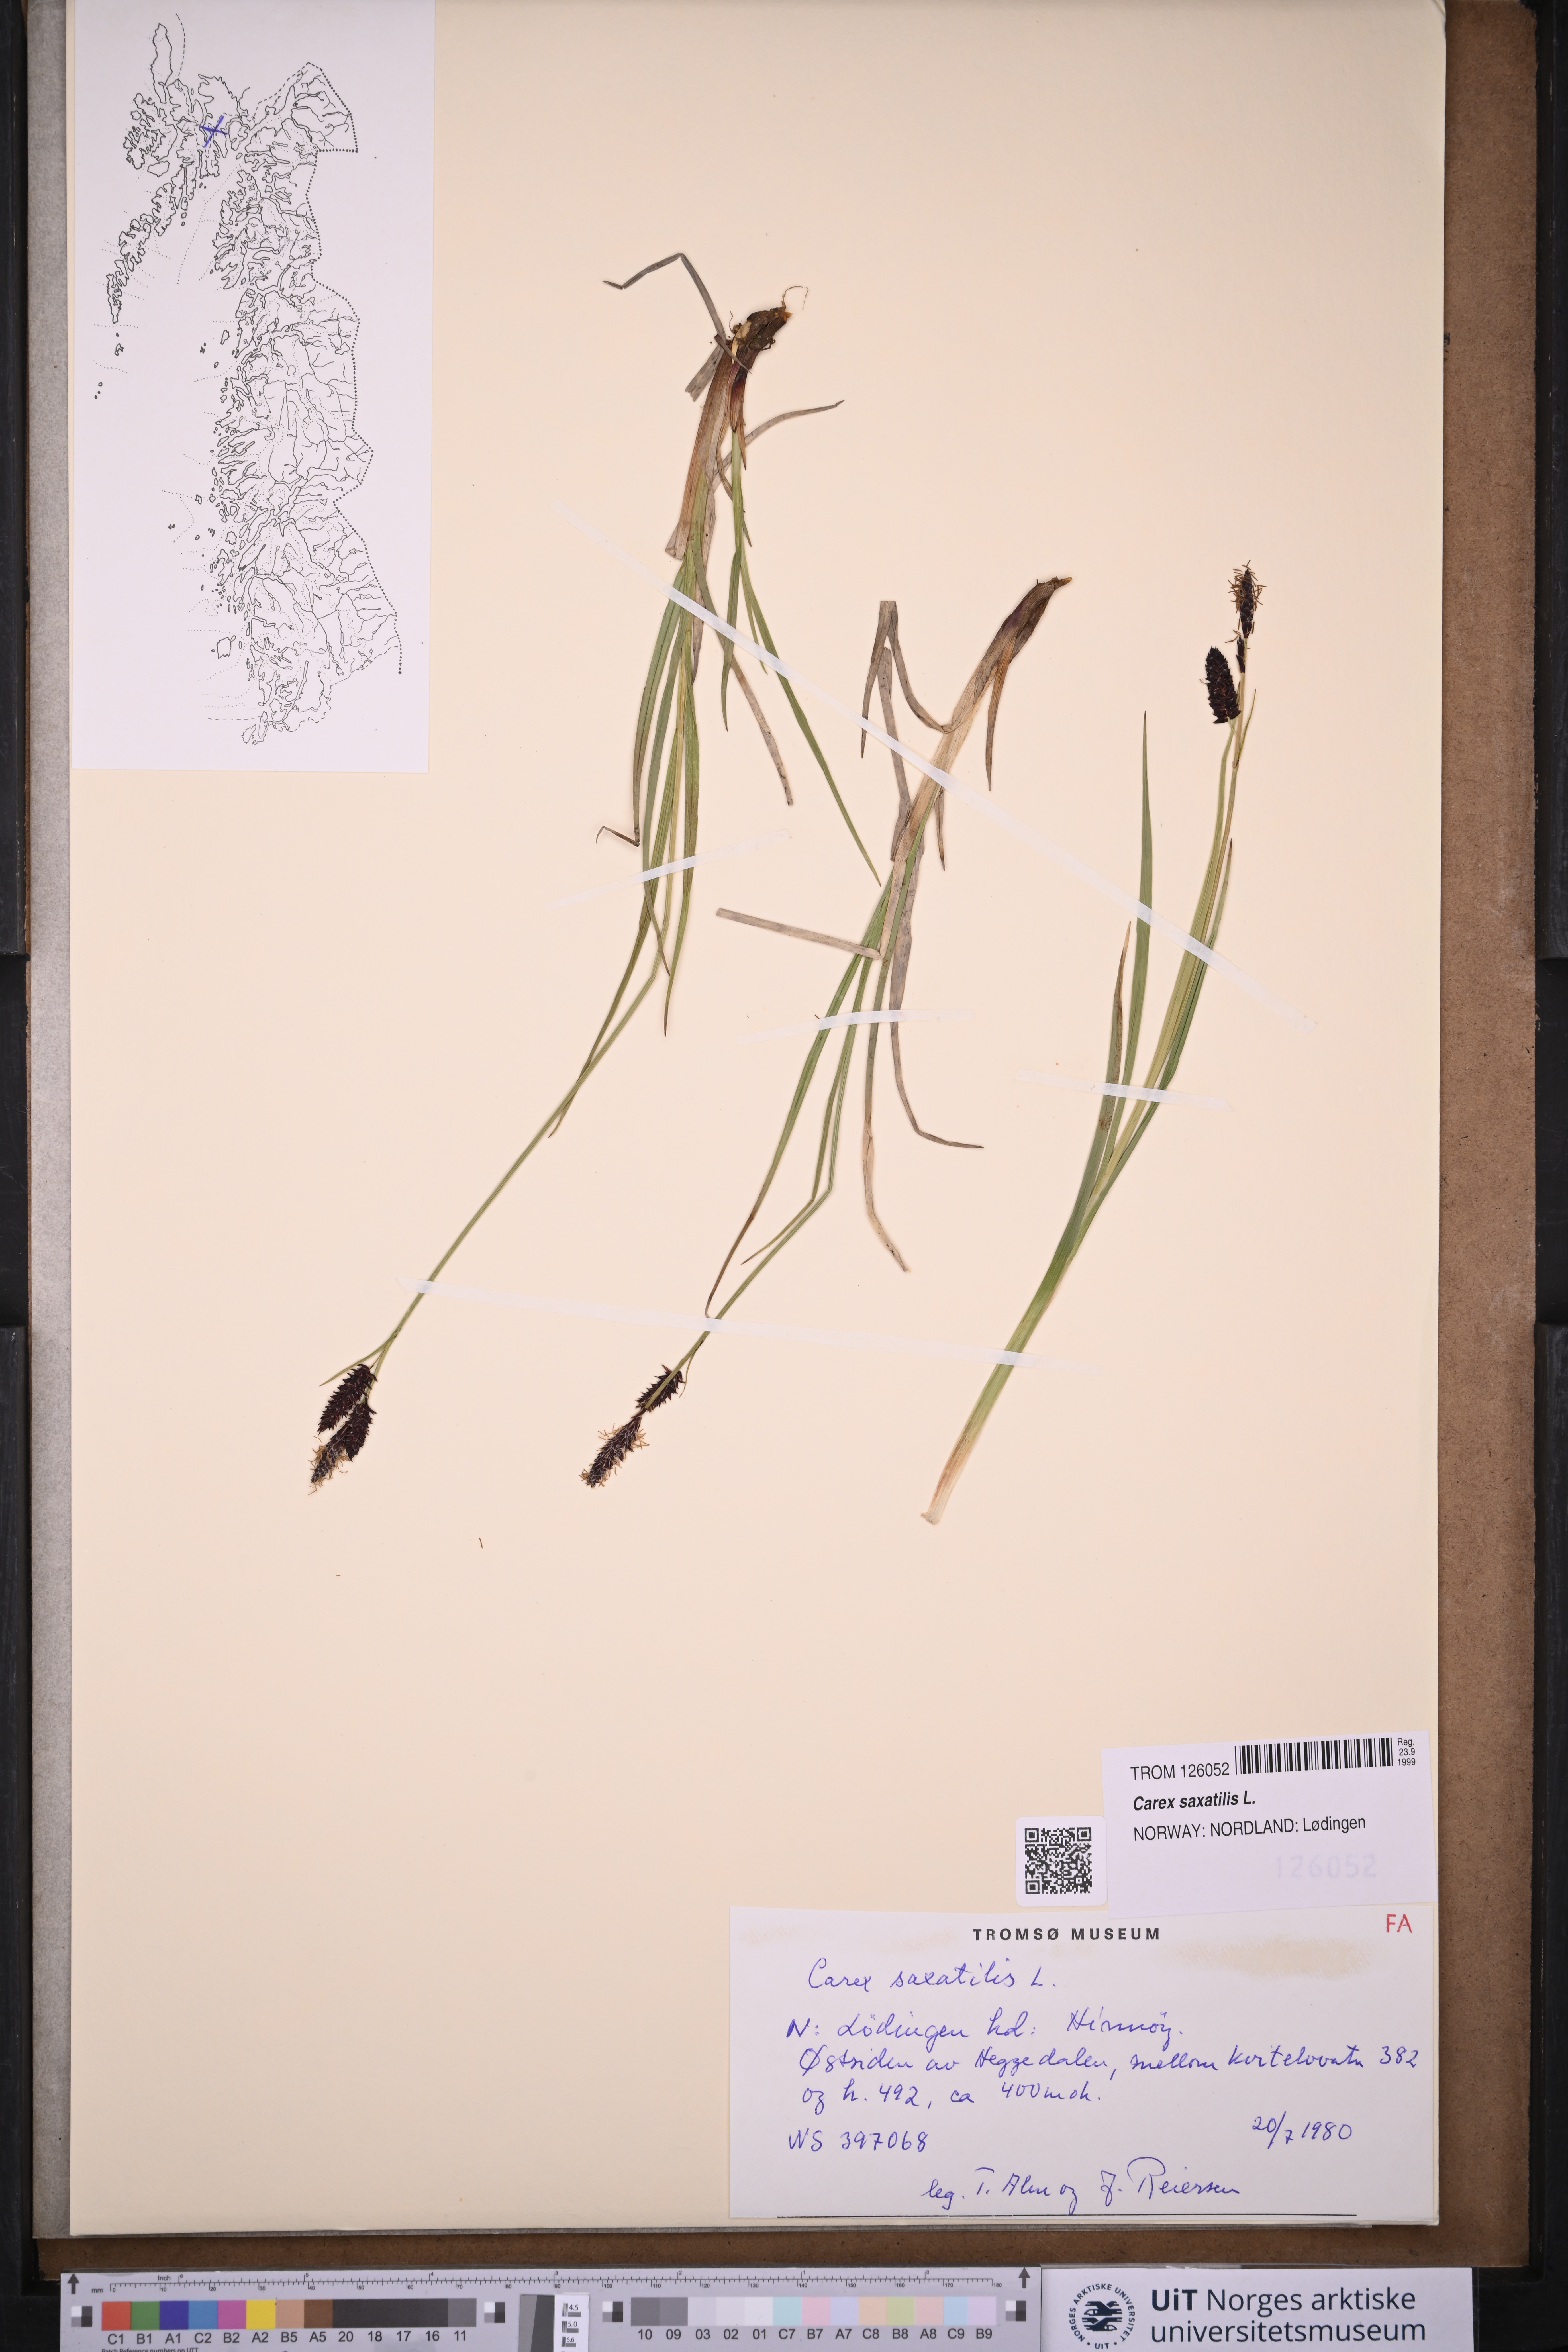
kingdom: Plantae
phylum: Tracheophyta
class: Liliopsida
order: Poales
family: Cyperaceae
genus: Carex
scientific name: Carex saxatilis
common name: Russet sedge
